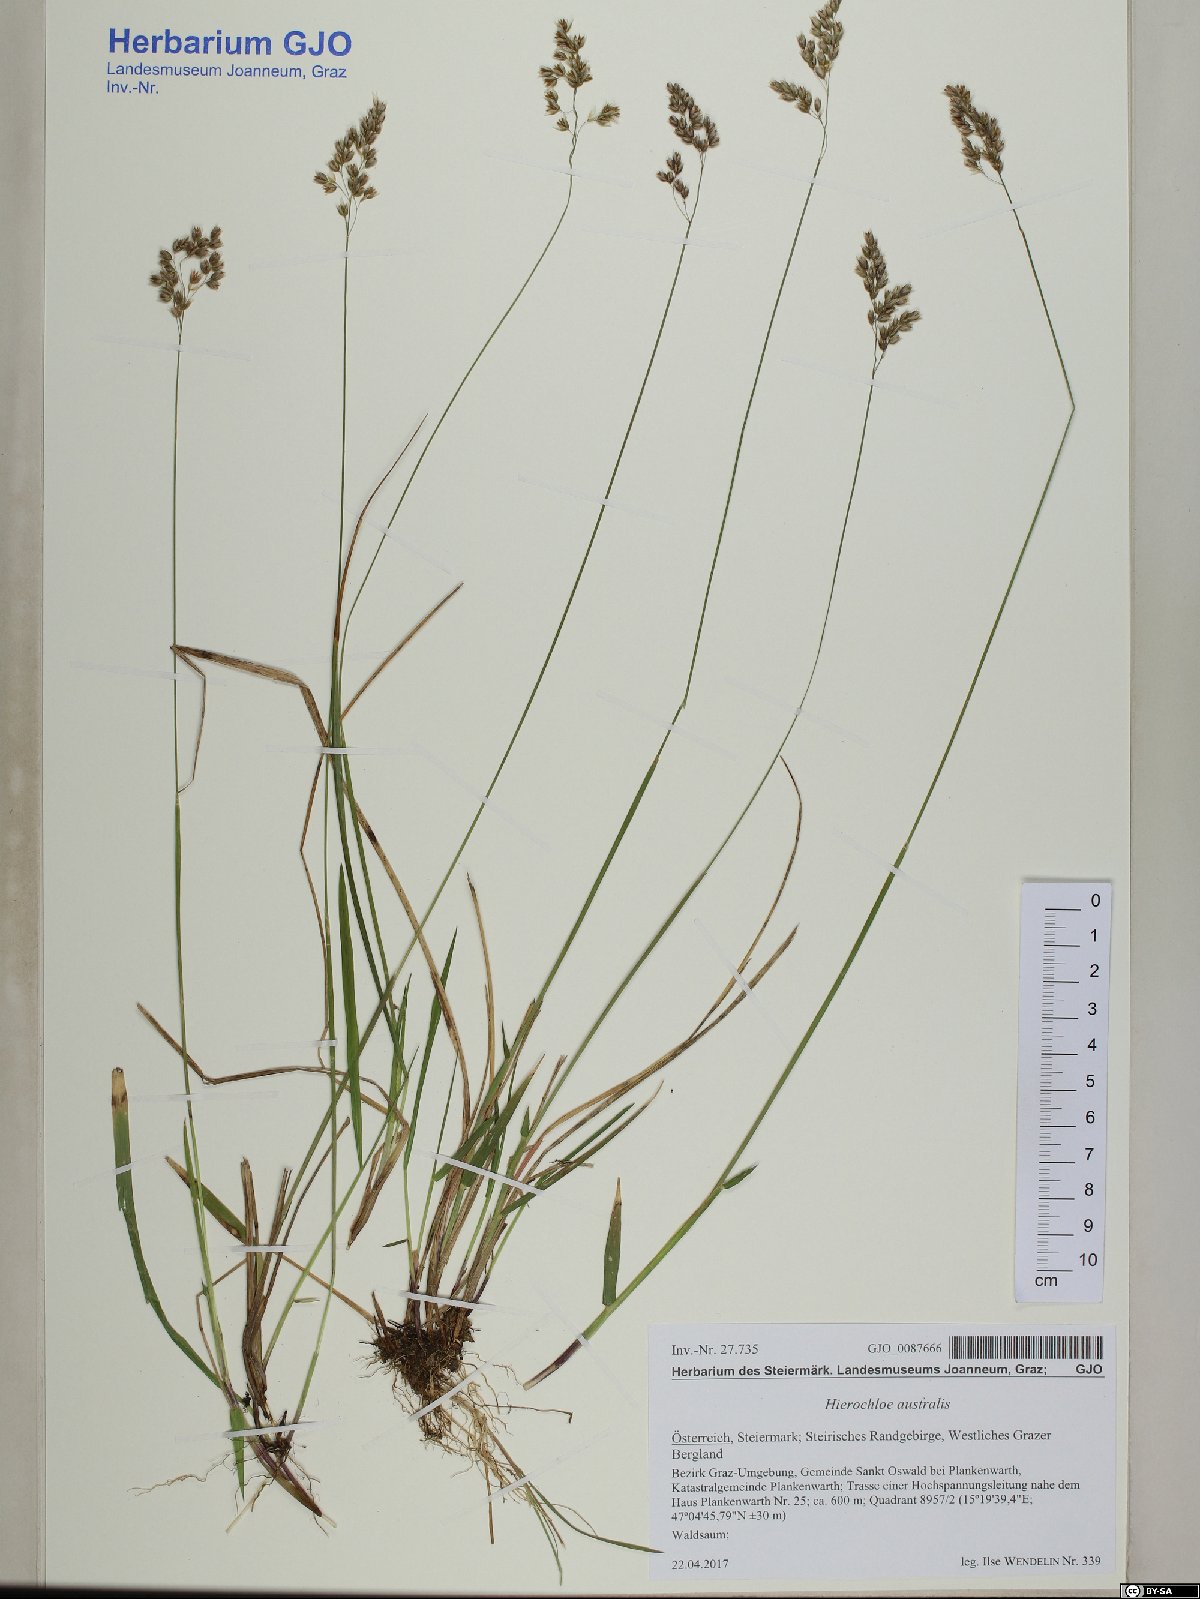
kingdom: Plantae
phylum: Tracheophyta
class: Liliopsida
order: Poales
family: Poaceae
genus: Anthoxanthum
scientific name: Anthoxanthum australe
